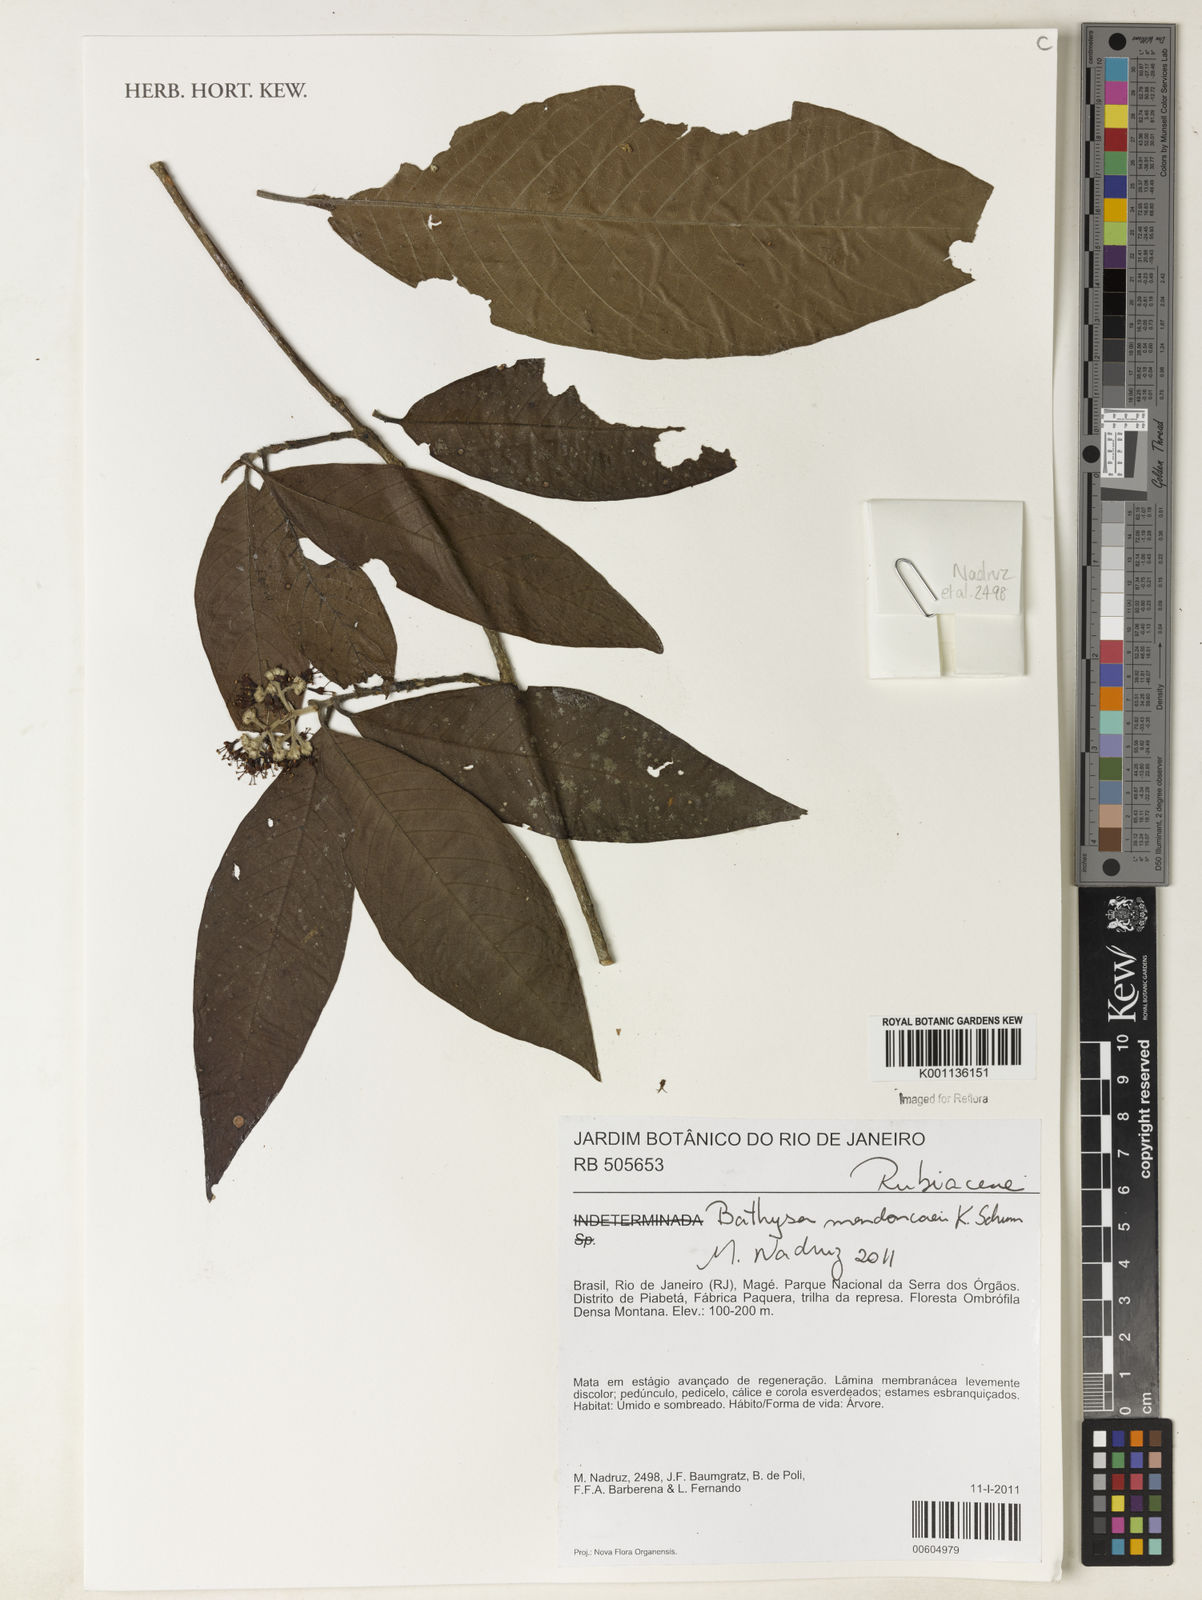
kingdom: Plantae
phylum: Tracheophyta
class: Magnoliopsida
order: Gentianales
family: Rubiaceae
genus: Bathysa
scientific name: Bathysa
